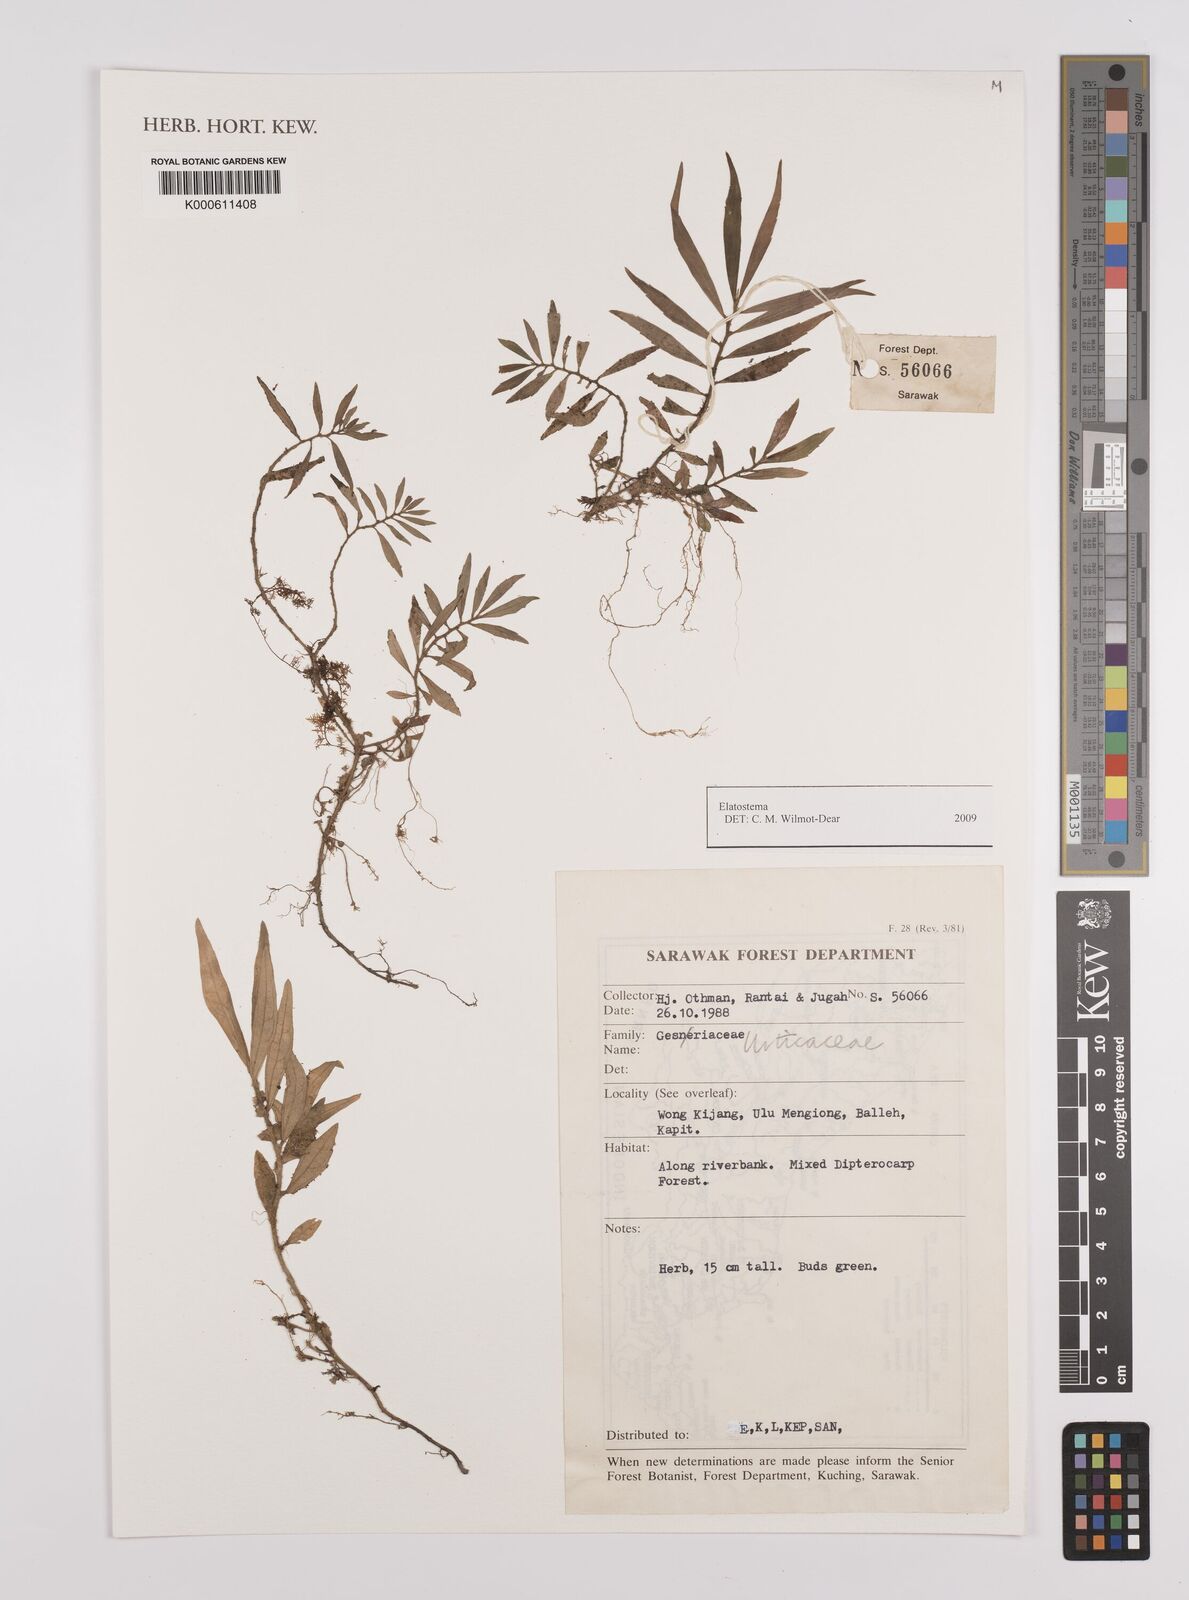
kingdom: Plantae
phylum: Tracheophyta
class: Magnoliopsida
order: Rosales
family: Urticaceae
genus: Elatostema
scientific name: Elatostema
